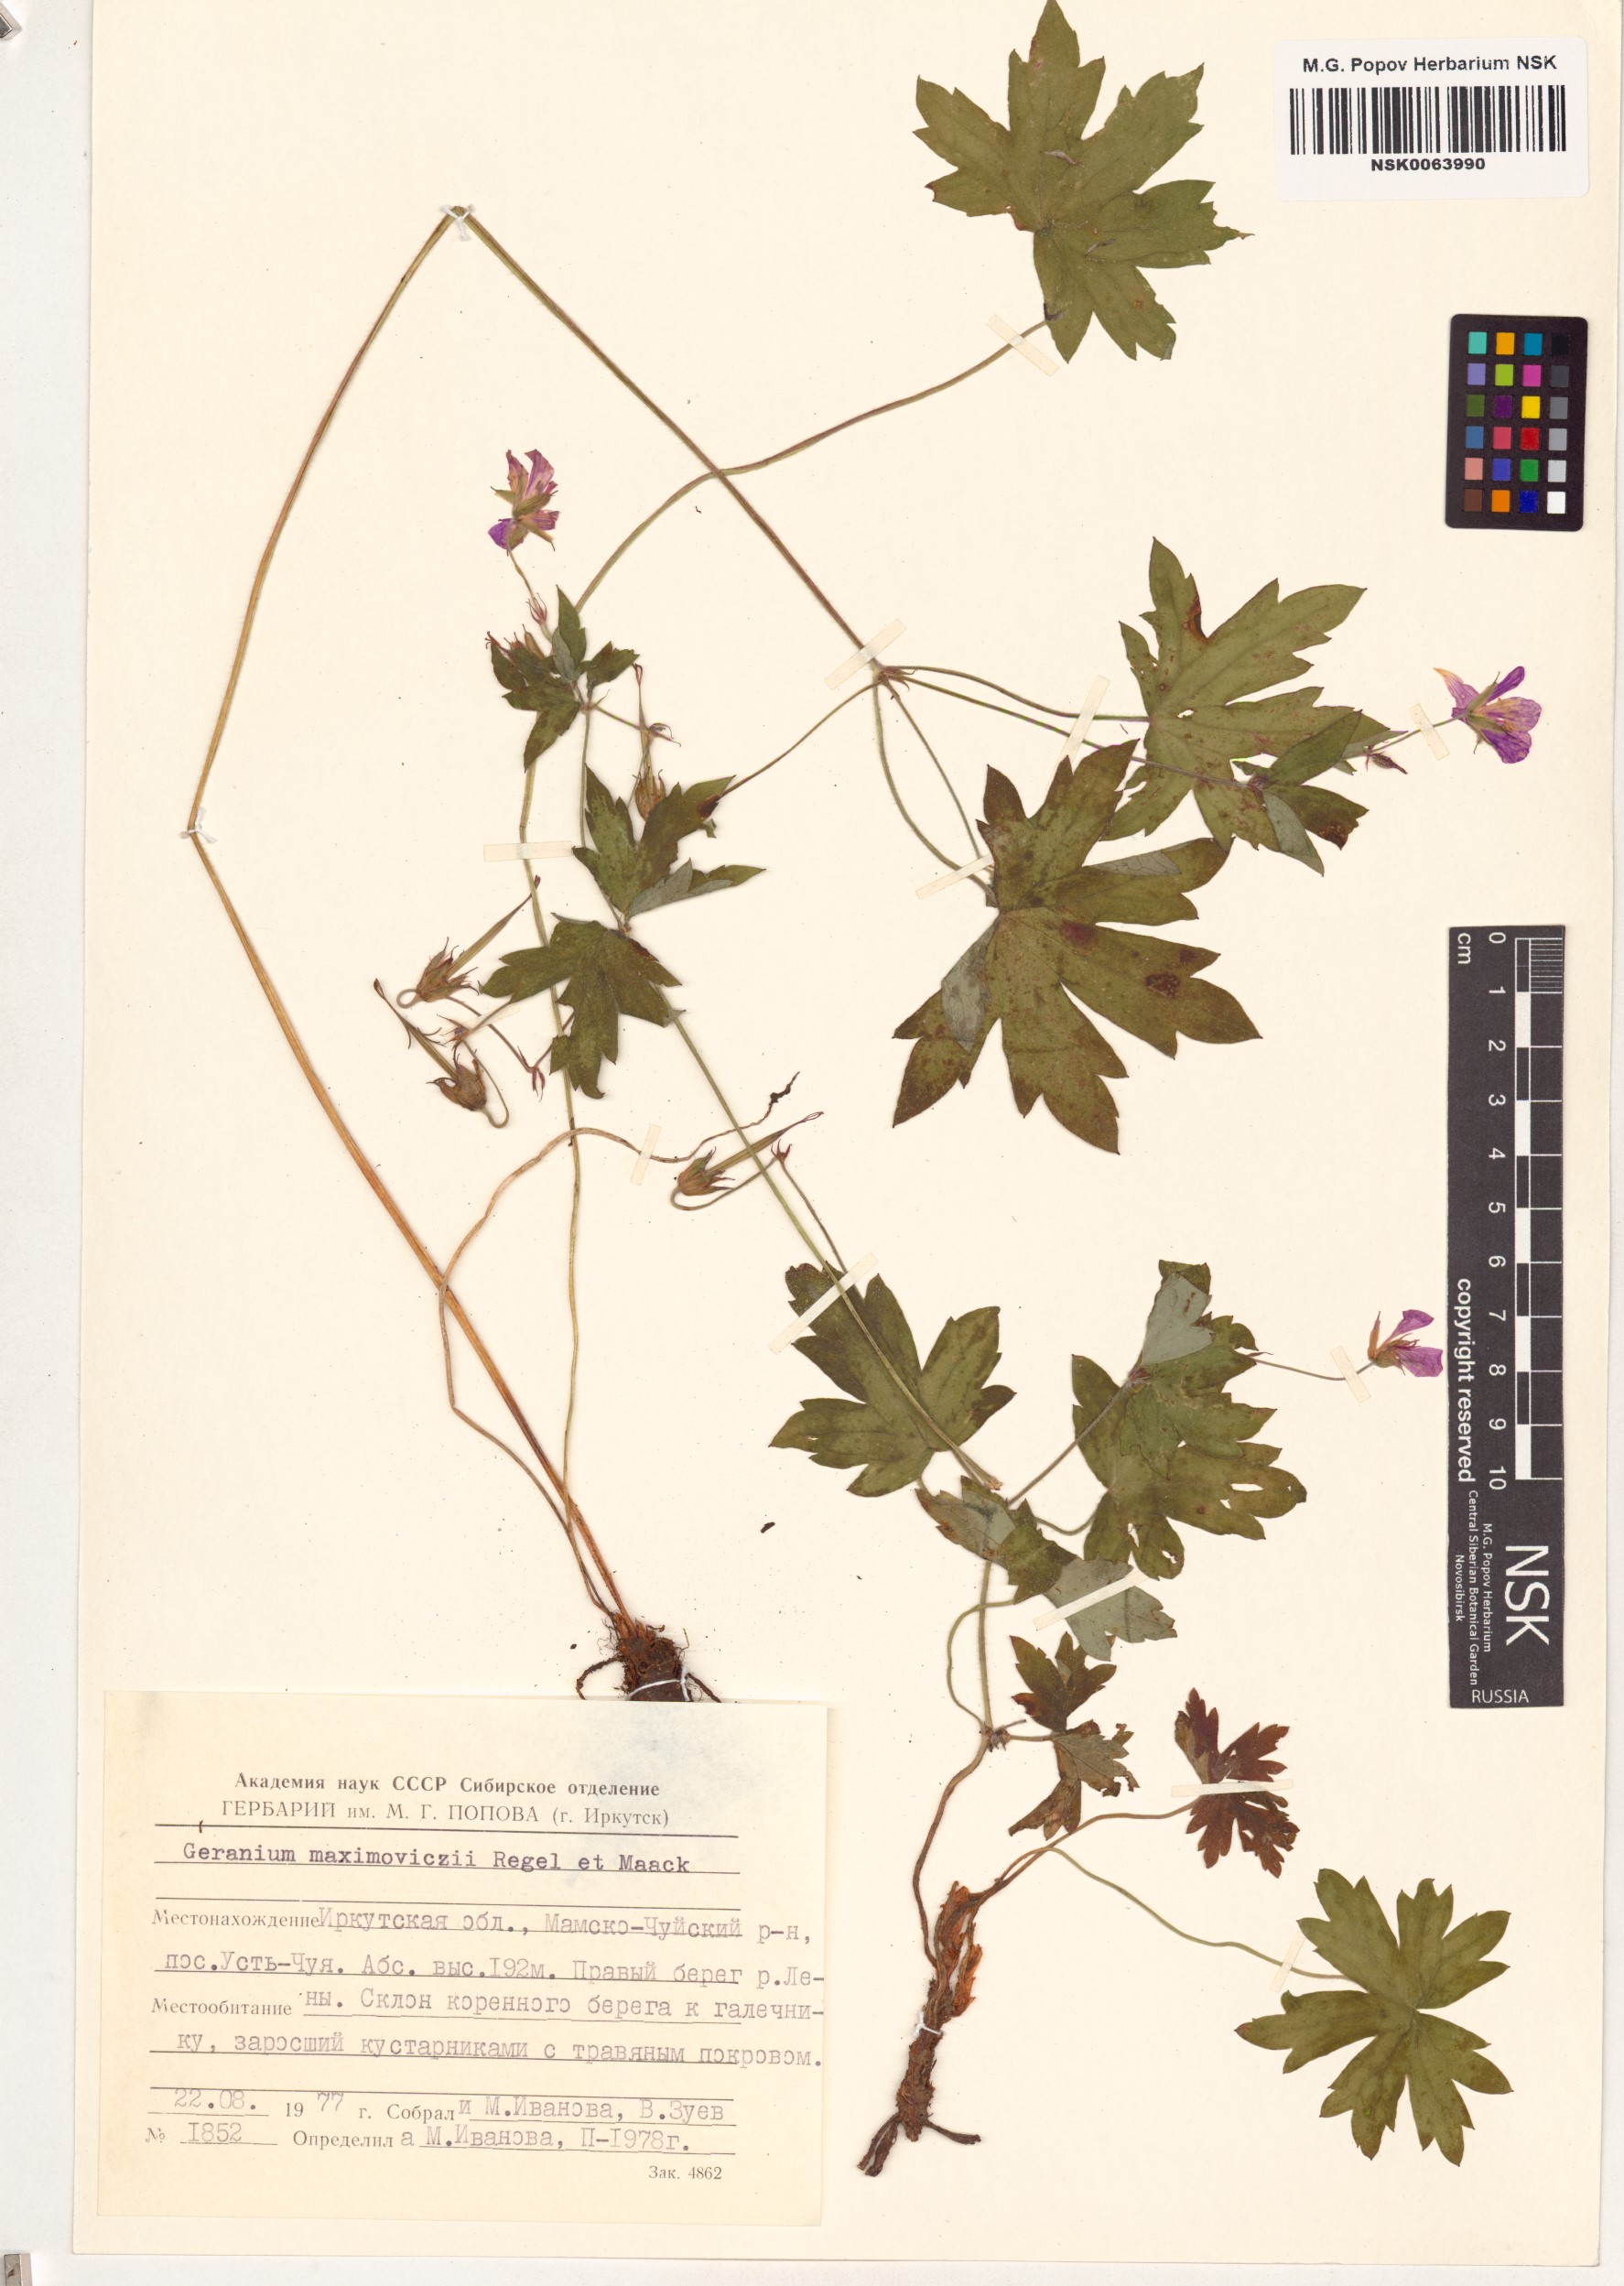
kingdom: Plantae
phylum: Tracheophyta
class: Magnoliopsida
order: Geraniales
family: Geraniaceae
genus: Geranium
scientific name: Geranium maximowiczii
